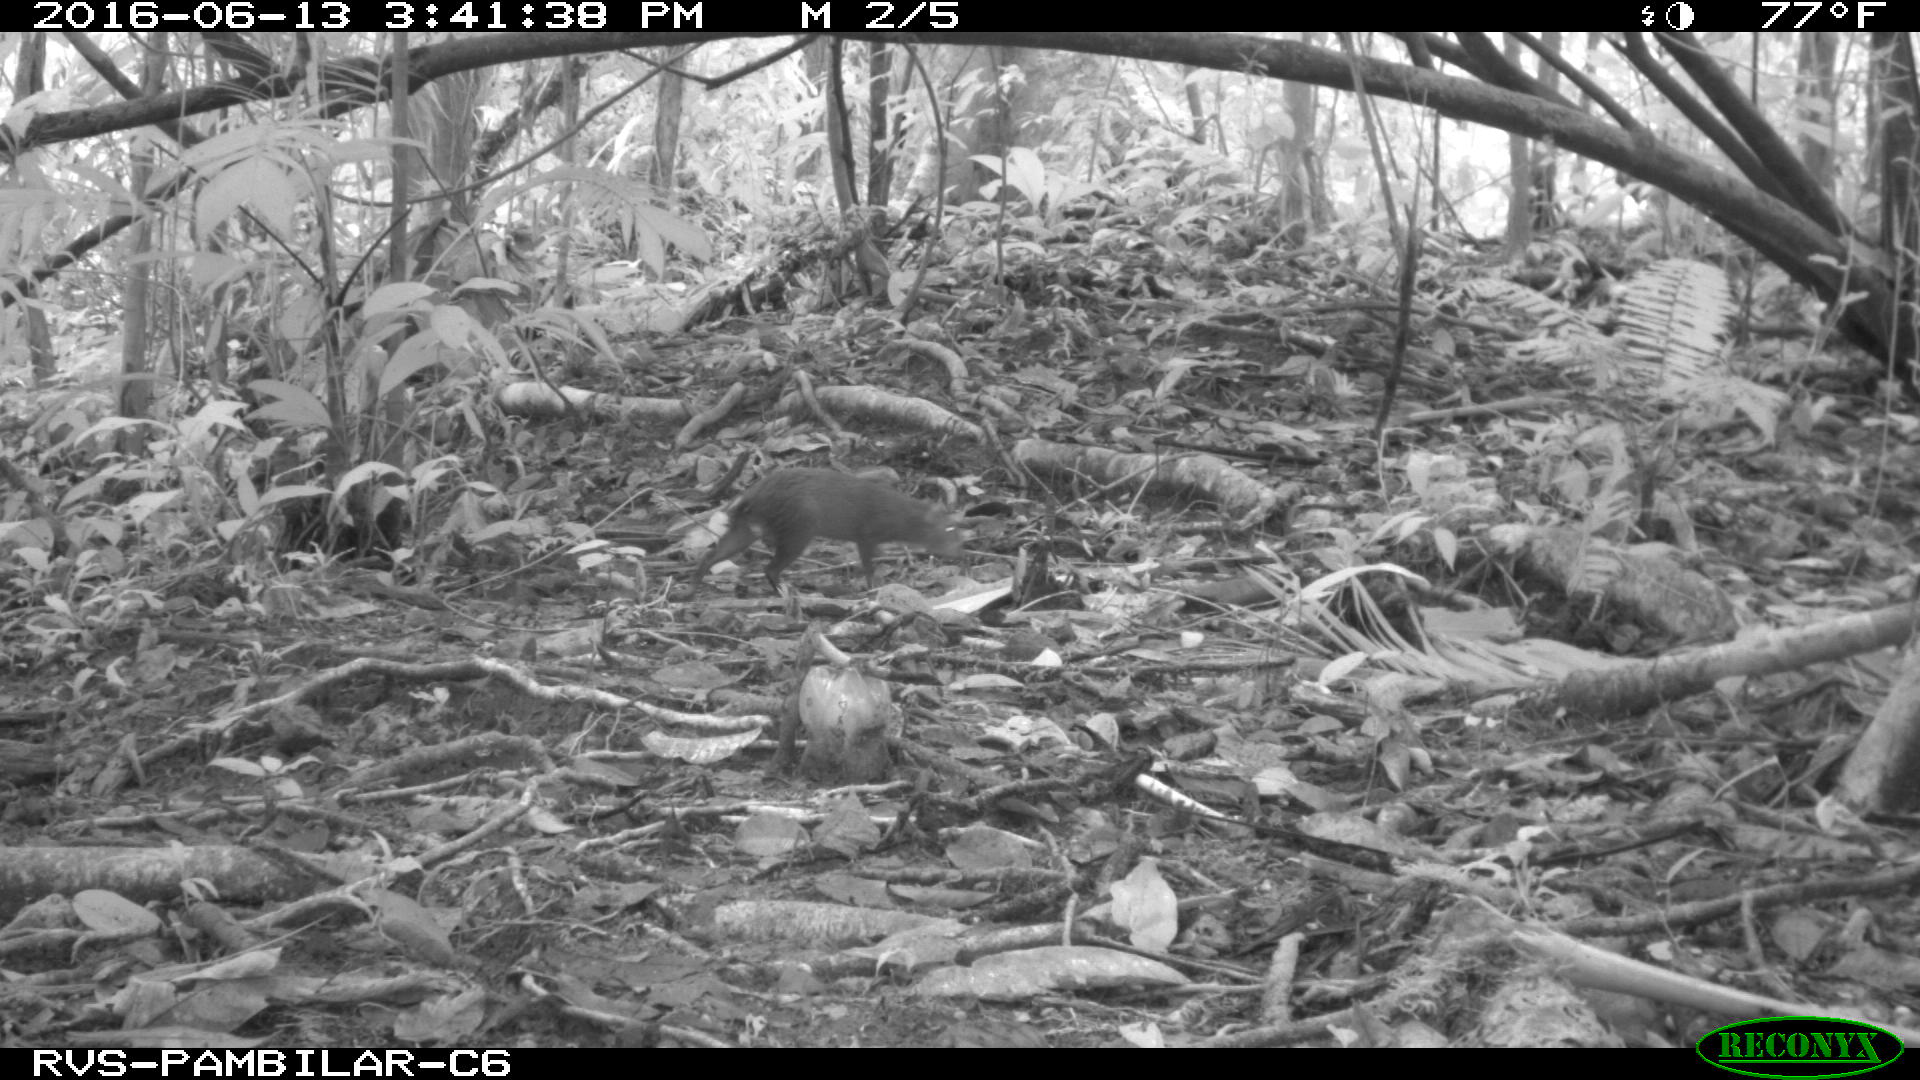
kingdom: Animalia
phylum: Chordata
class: Mammalia
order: Rodentia
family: Dasyproctidae
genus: Dasyprocta
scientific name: Dasyprocta punctata
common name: Central american agouti
